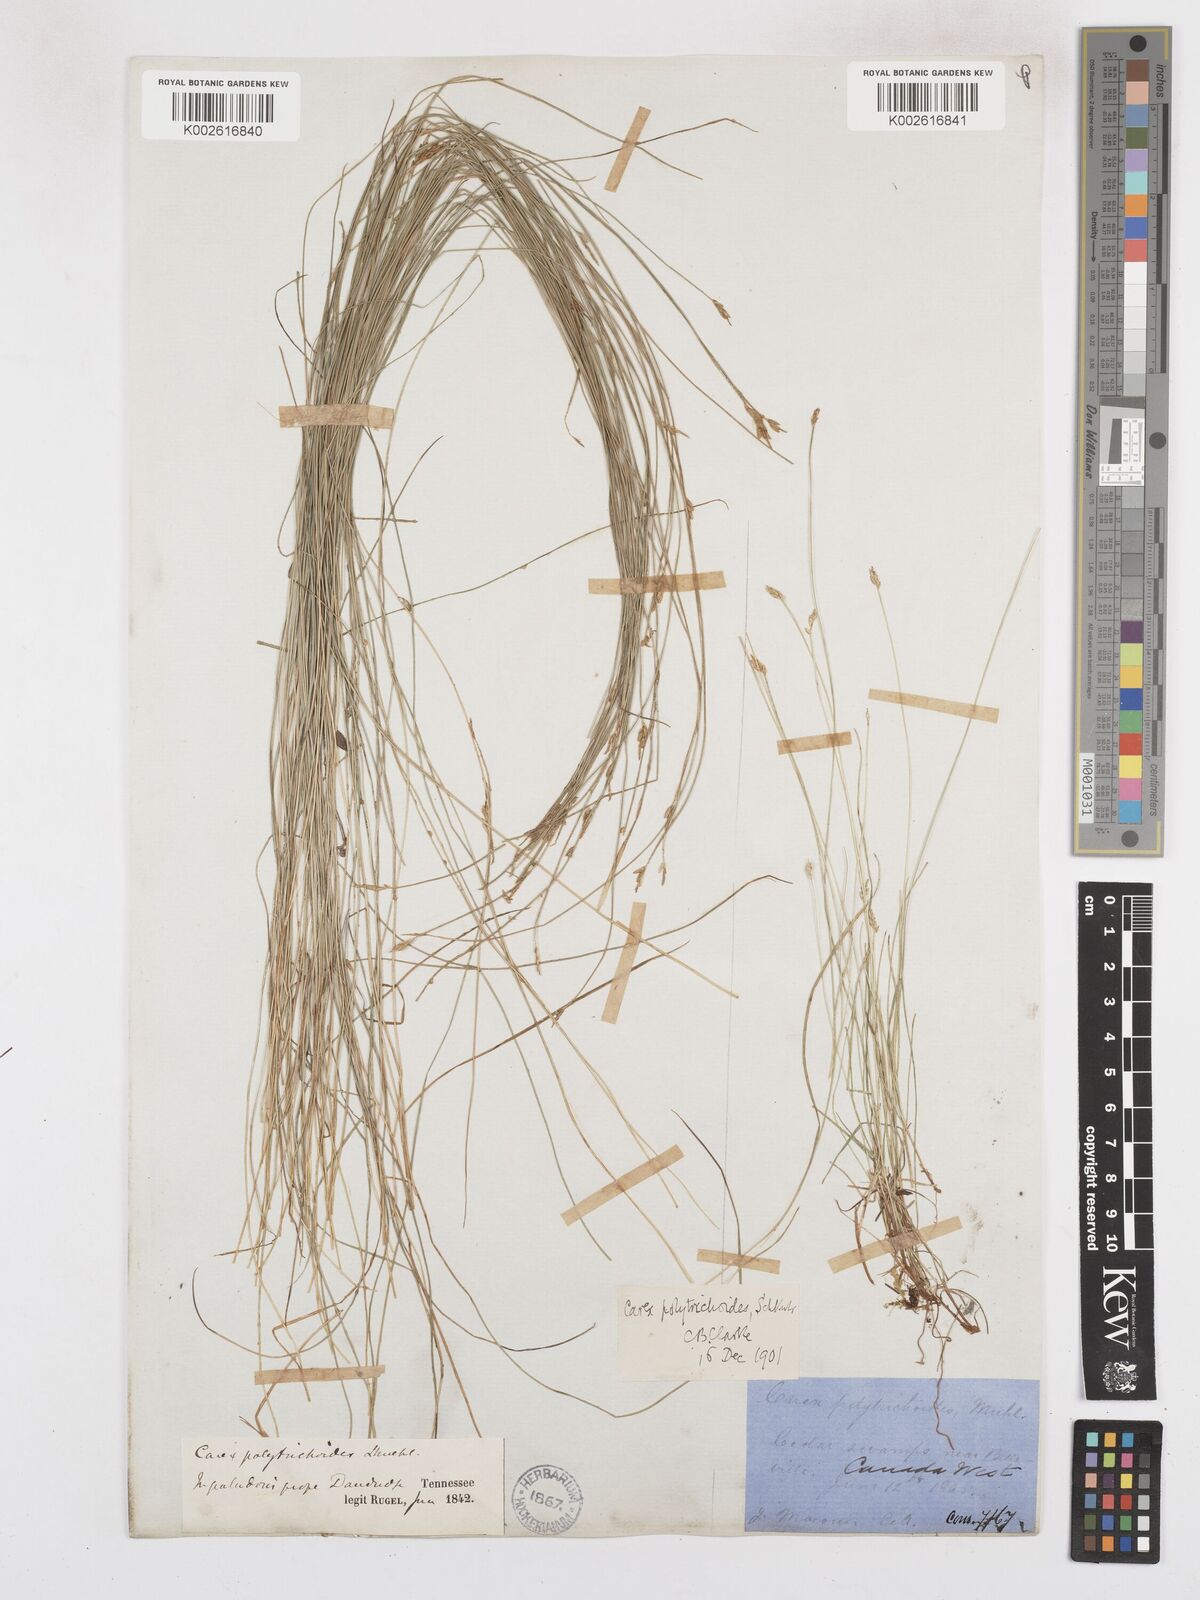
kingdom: Plantae
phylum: Tracheophyta
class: Liliopsida
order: Poales
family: Cyperaceae
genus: Carex
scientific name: Carex leptalea
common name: Bristly-stalked sedge
